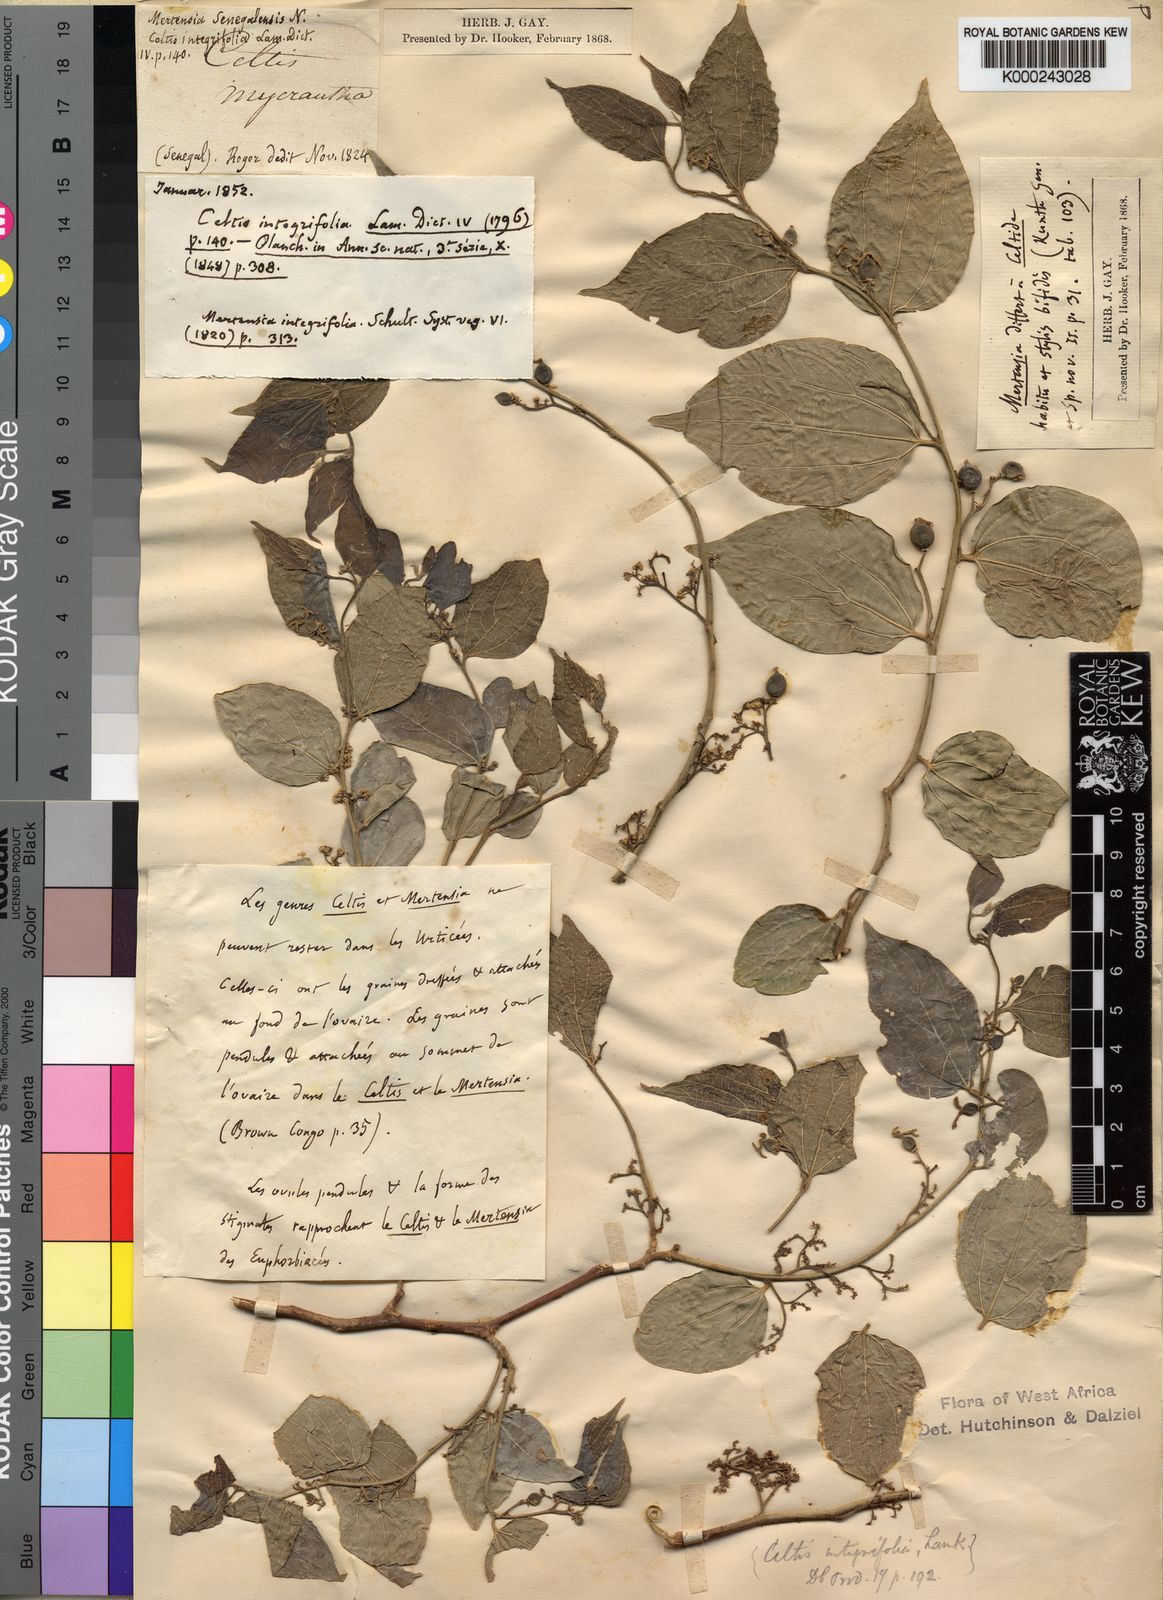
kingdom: Plantae
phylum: Tracheophyta
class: Magnoliopsida
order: Rosales
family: Cannabaceae
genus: Celtis
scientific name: Celtis toka
